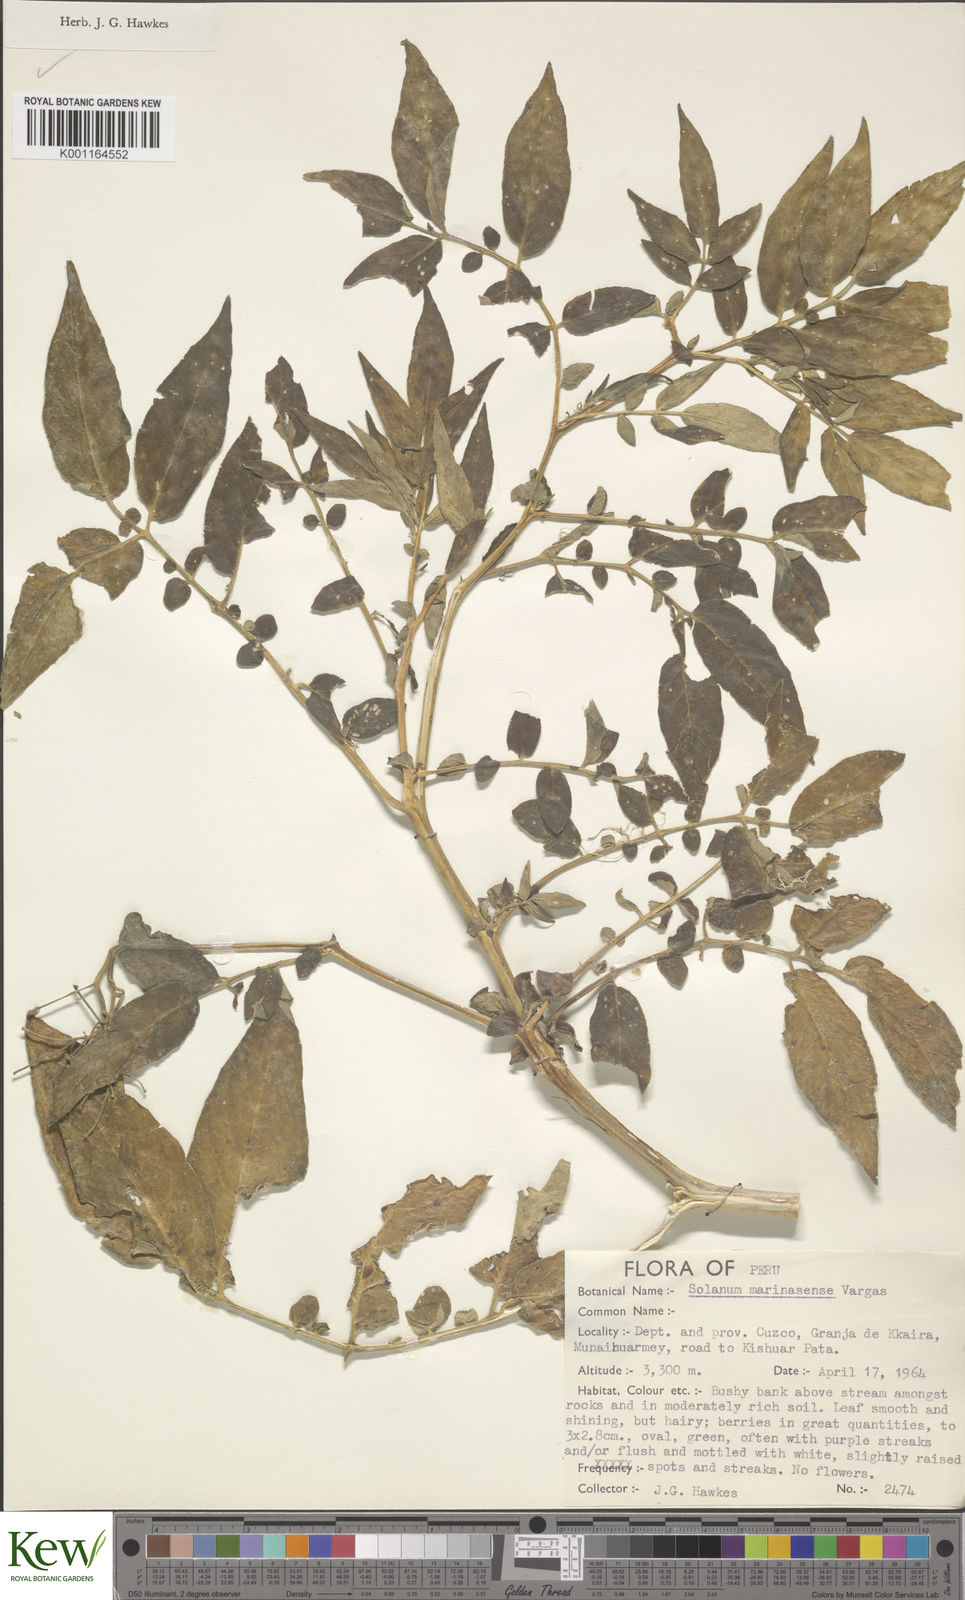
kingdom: Plantae
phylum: Tracheophyta
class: Magnoliopsida
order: Solanales
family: Solanaceae
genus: Solanum
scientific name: Solanum candolleanum
